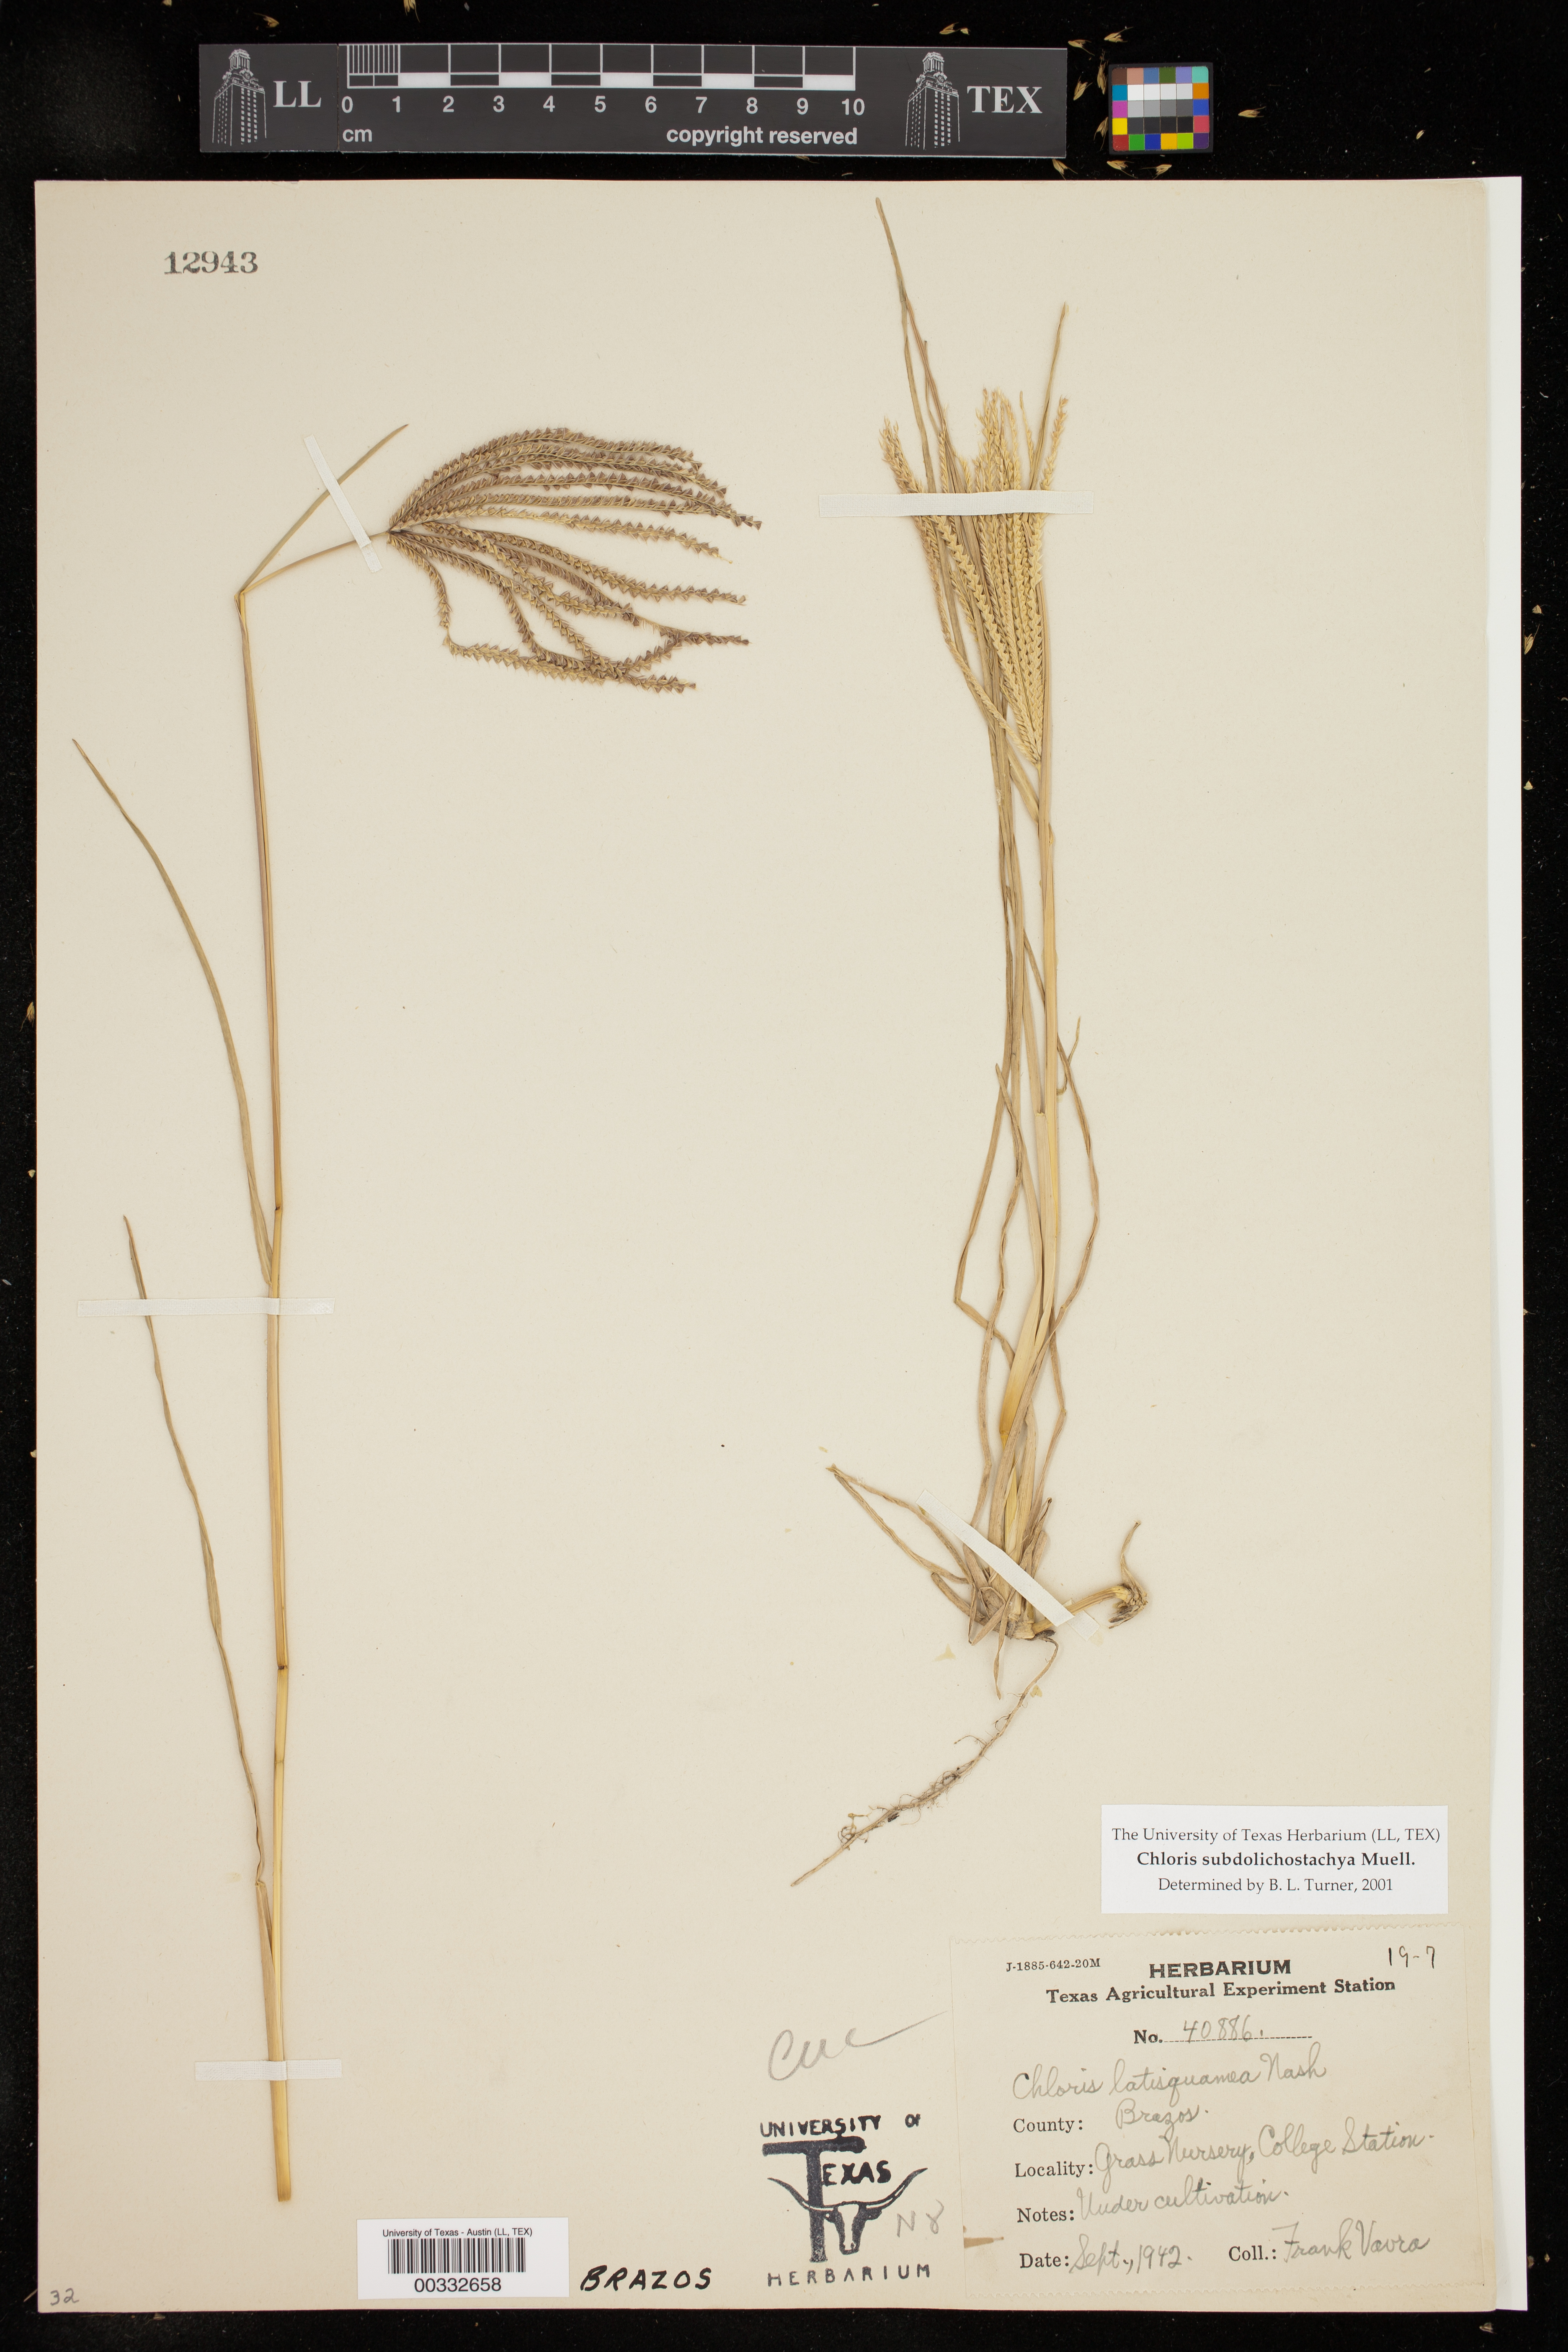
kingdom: Plantae
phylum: Tracheophyta
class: Liliopsida
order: Poales
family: Poaceae
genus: Chloris
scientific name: Chloris subdolichostachya
